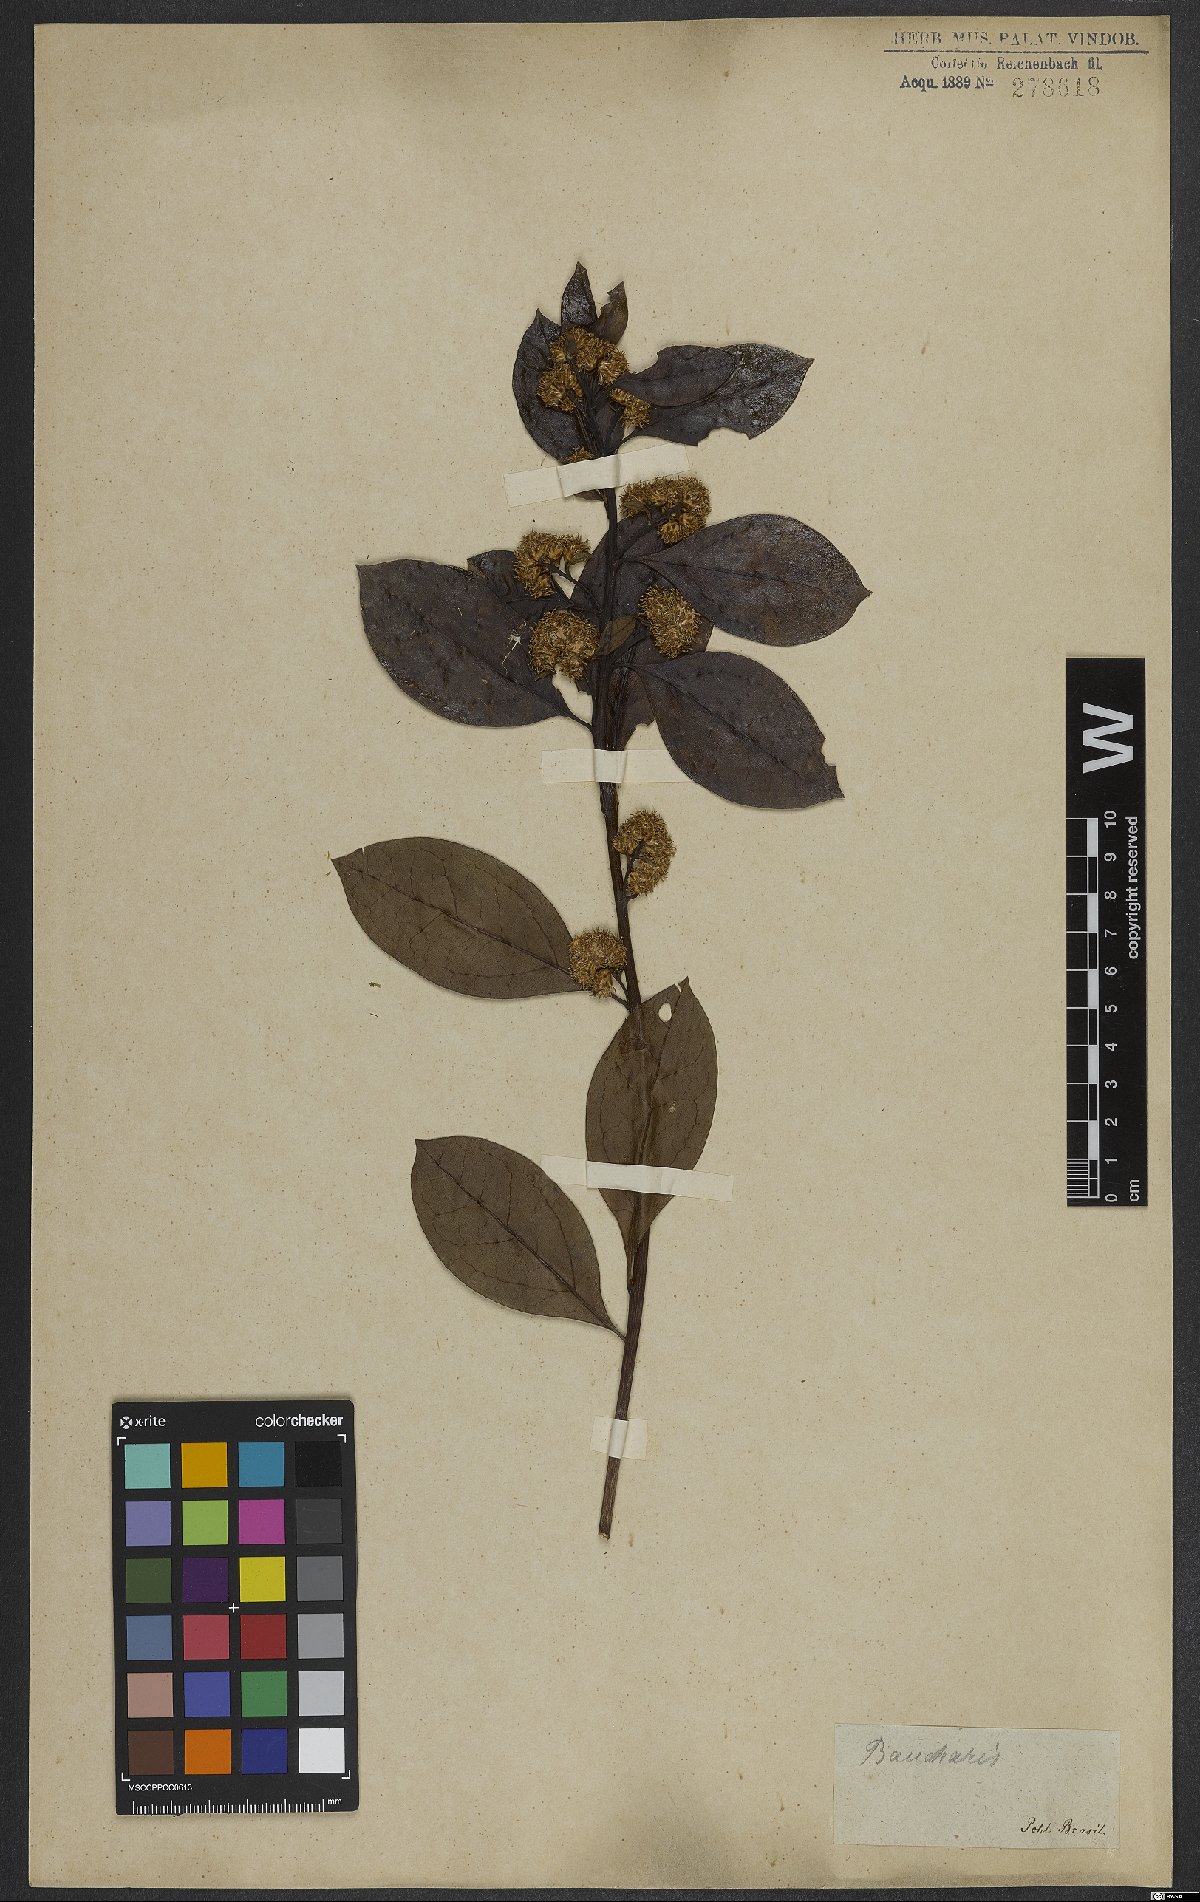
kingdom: Plantae
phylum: Tracheophyta
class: Magnoliopsida
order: Asterales
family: Asteraceae
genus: Baccharis
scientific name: Baccharis
